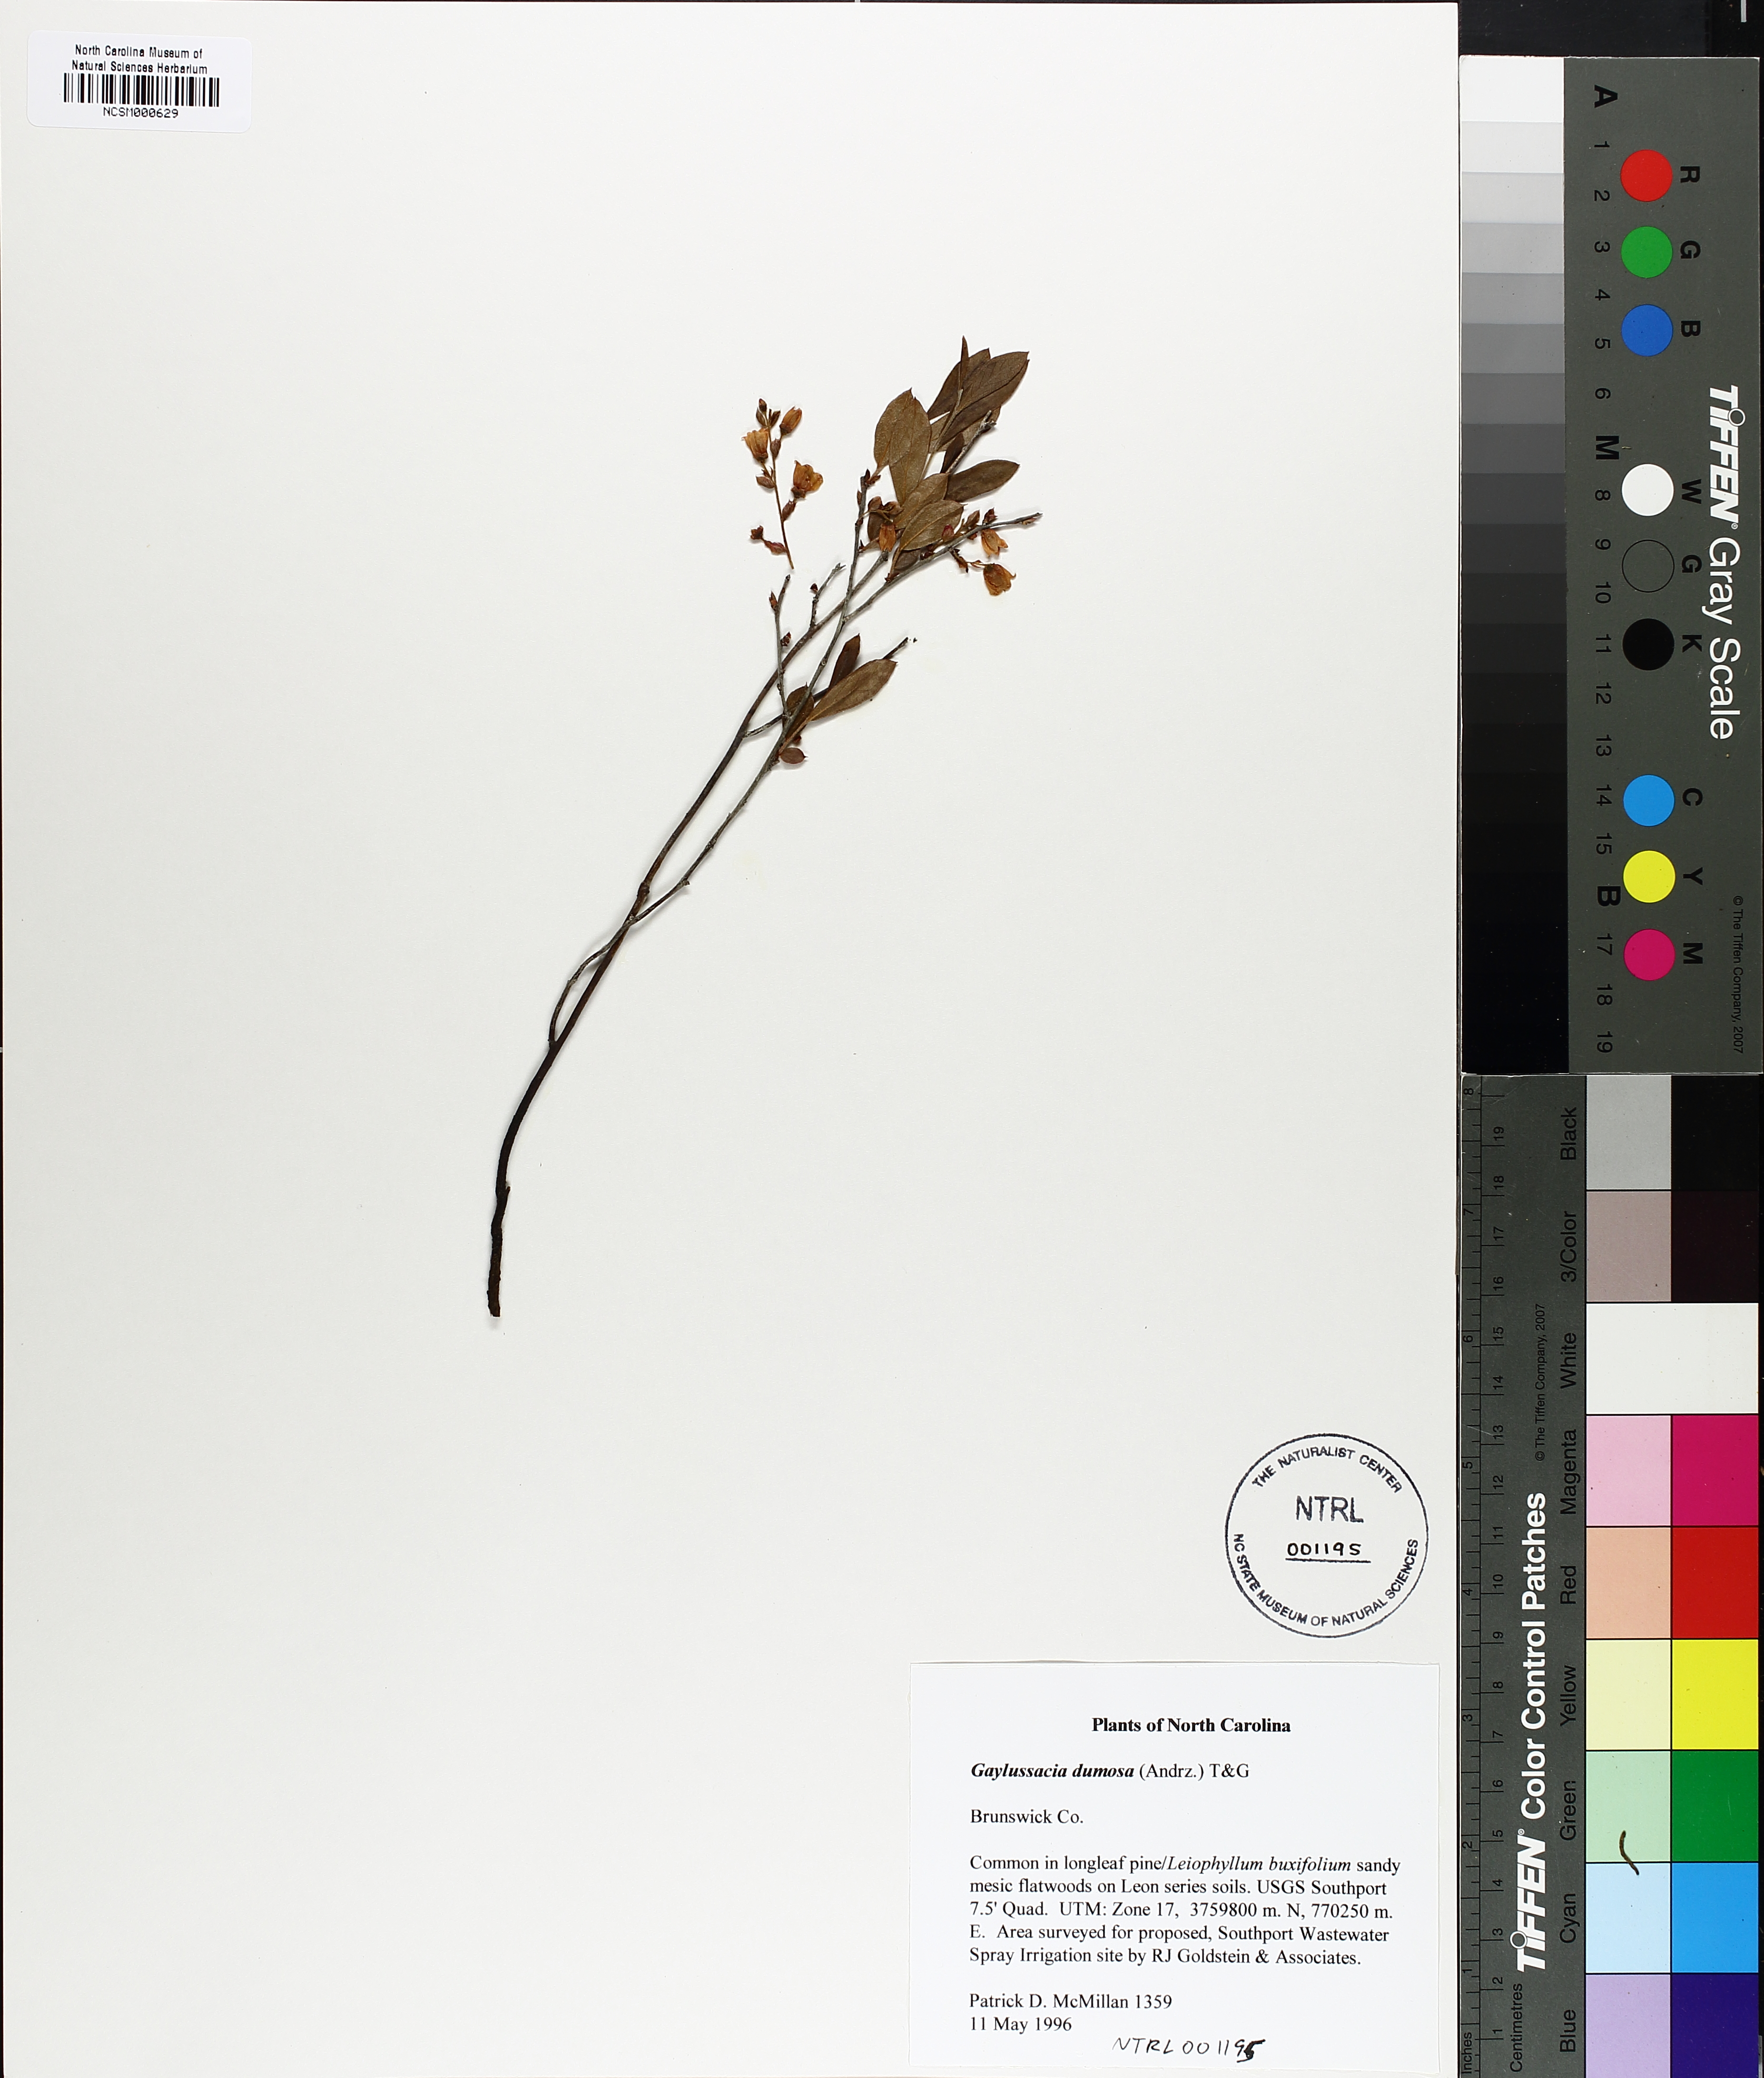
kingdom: Plantae
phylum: Tracheophyta
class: Magnoliopsida
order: Ericales
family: Ericaceae
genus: Gaylussacia
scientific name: Gaylussacia dumosa
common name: Dwarf huckleberry
